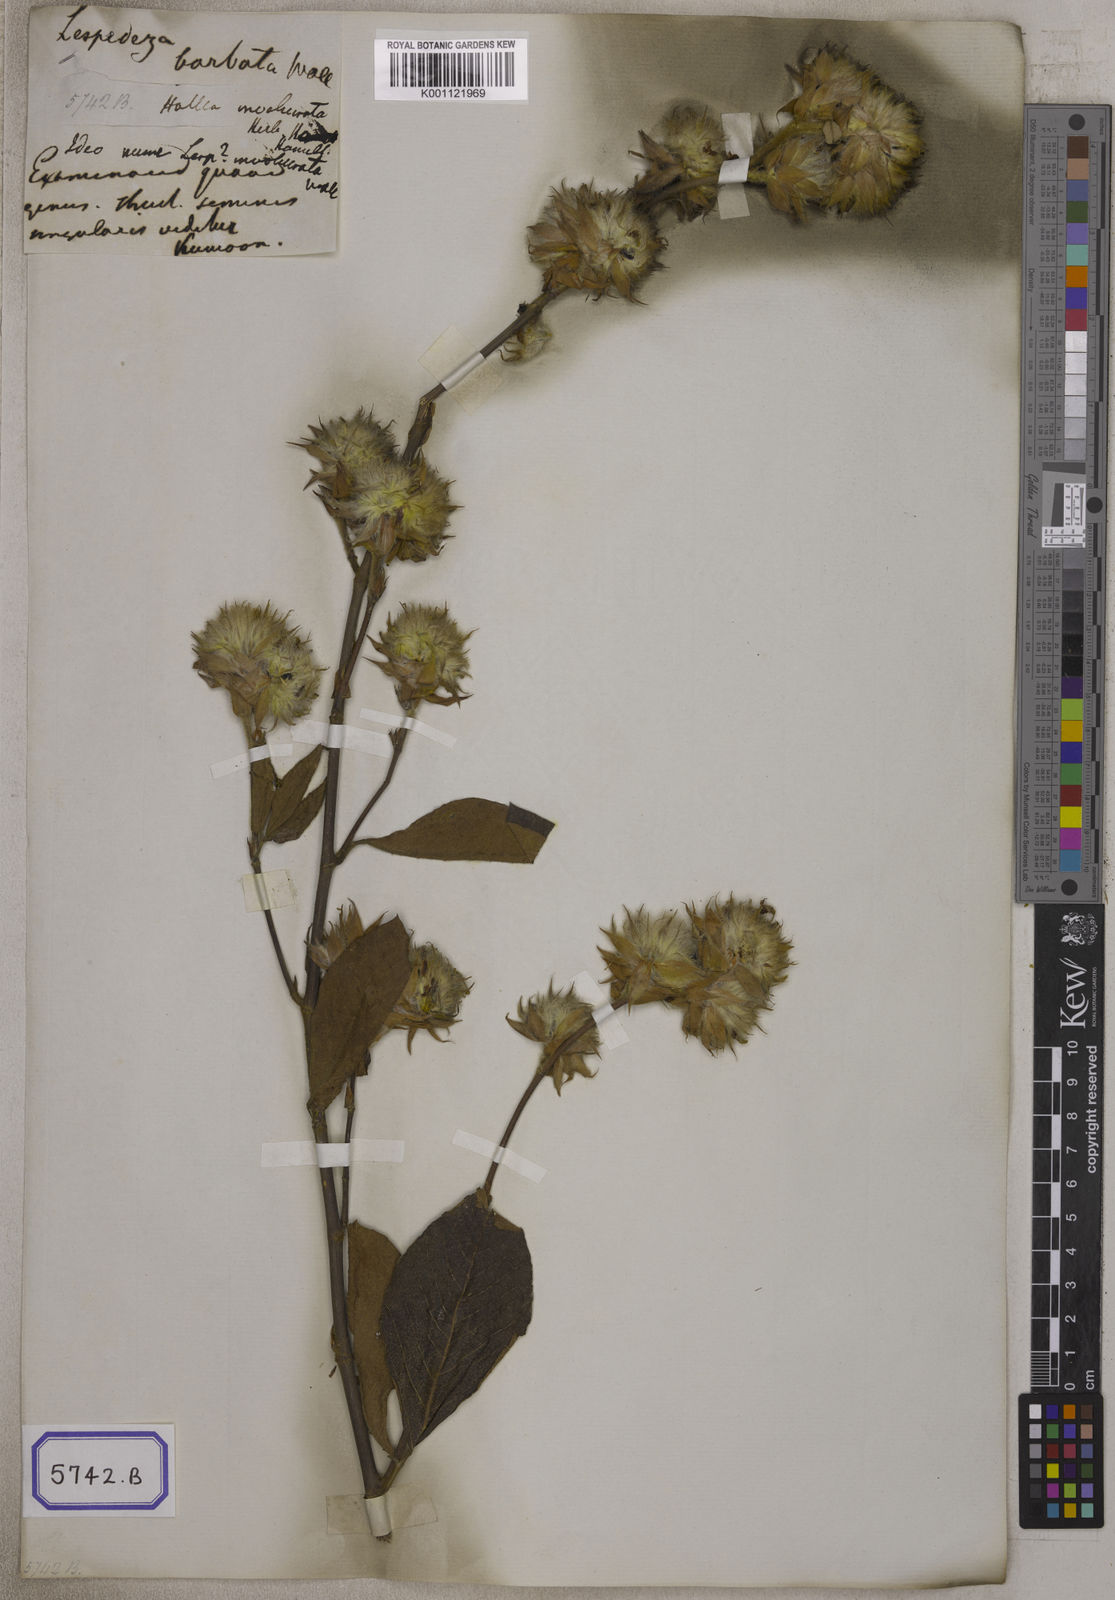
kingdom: Plantae
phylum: Tracheophyta
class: Magnoliopsida
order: Fabales
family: Fabaceae
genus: Flemingia
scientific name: Flemingia trifoliata
